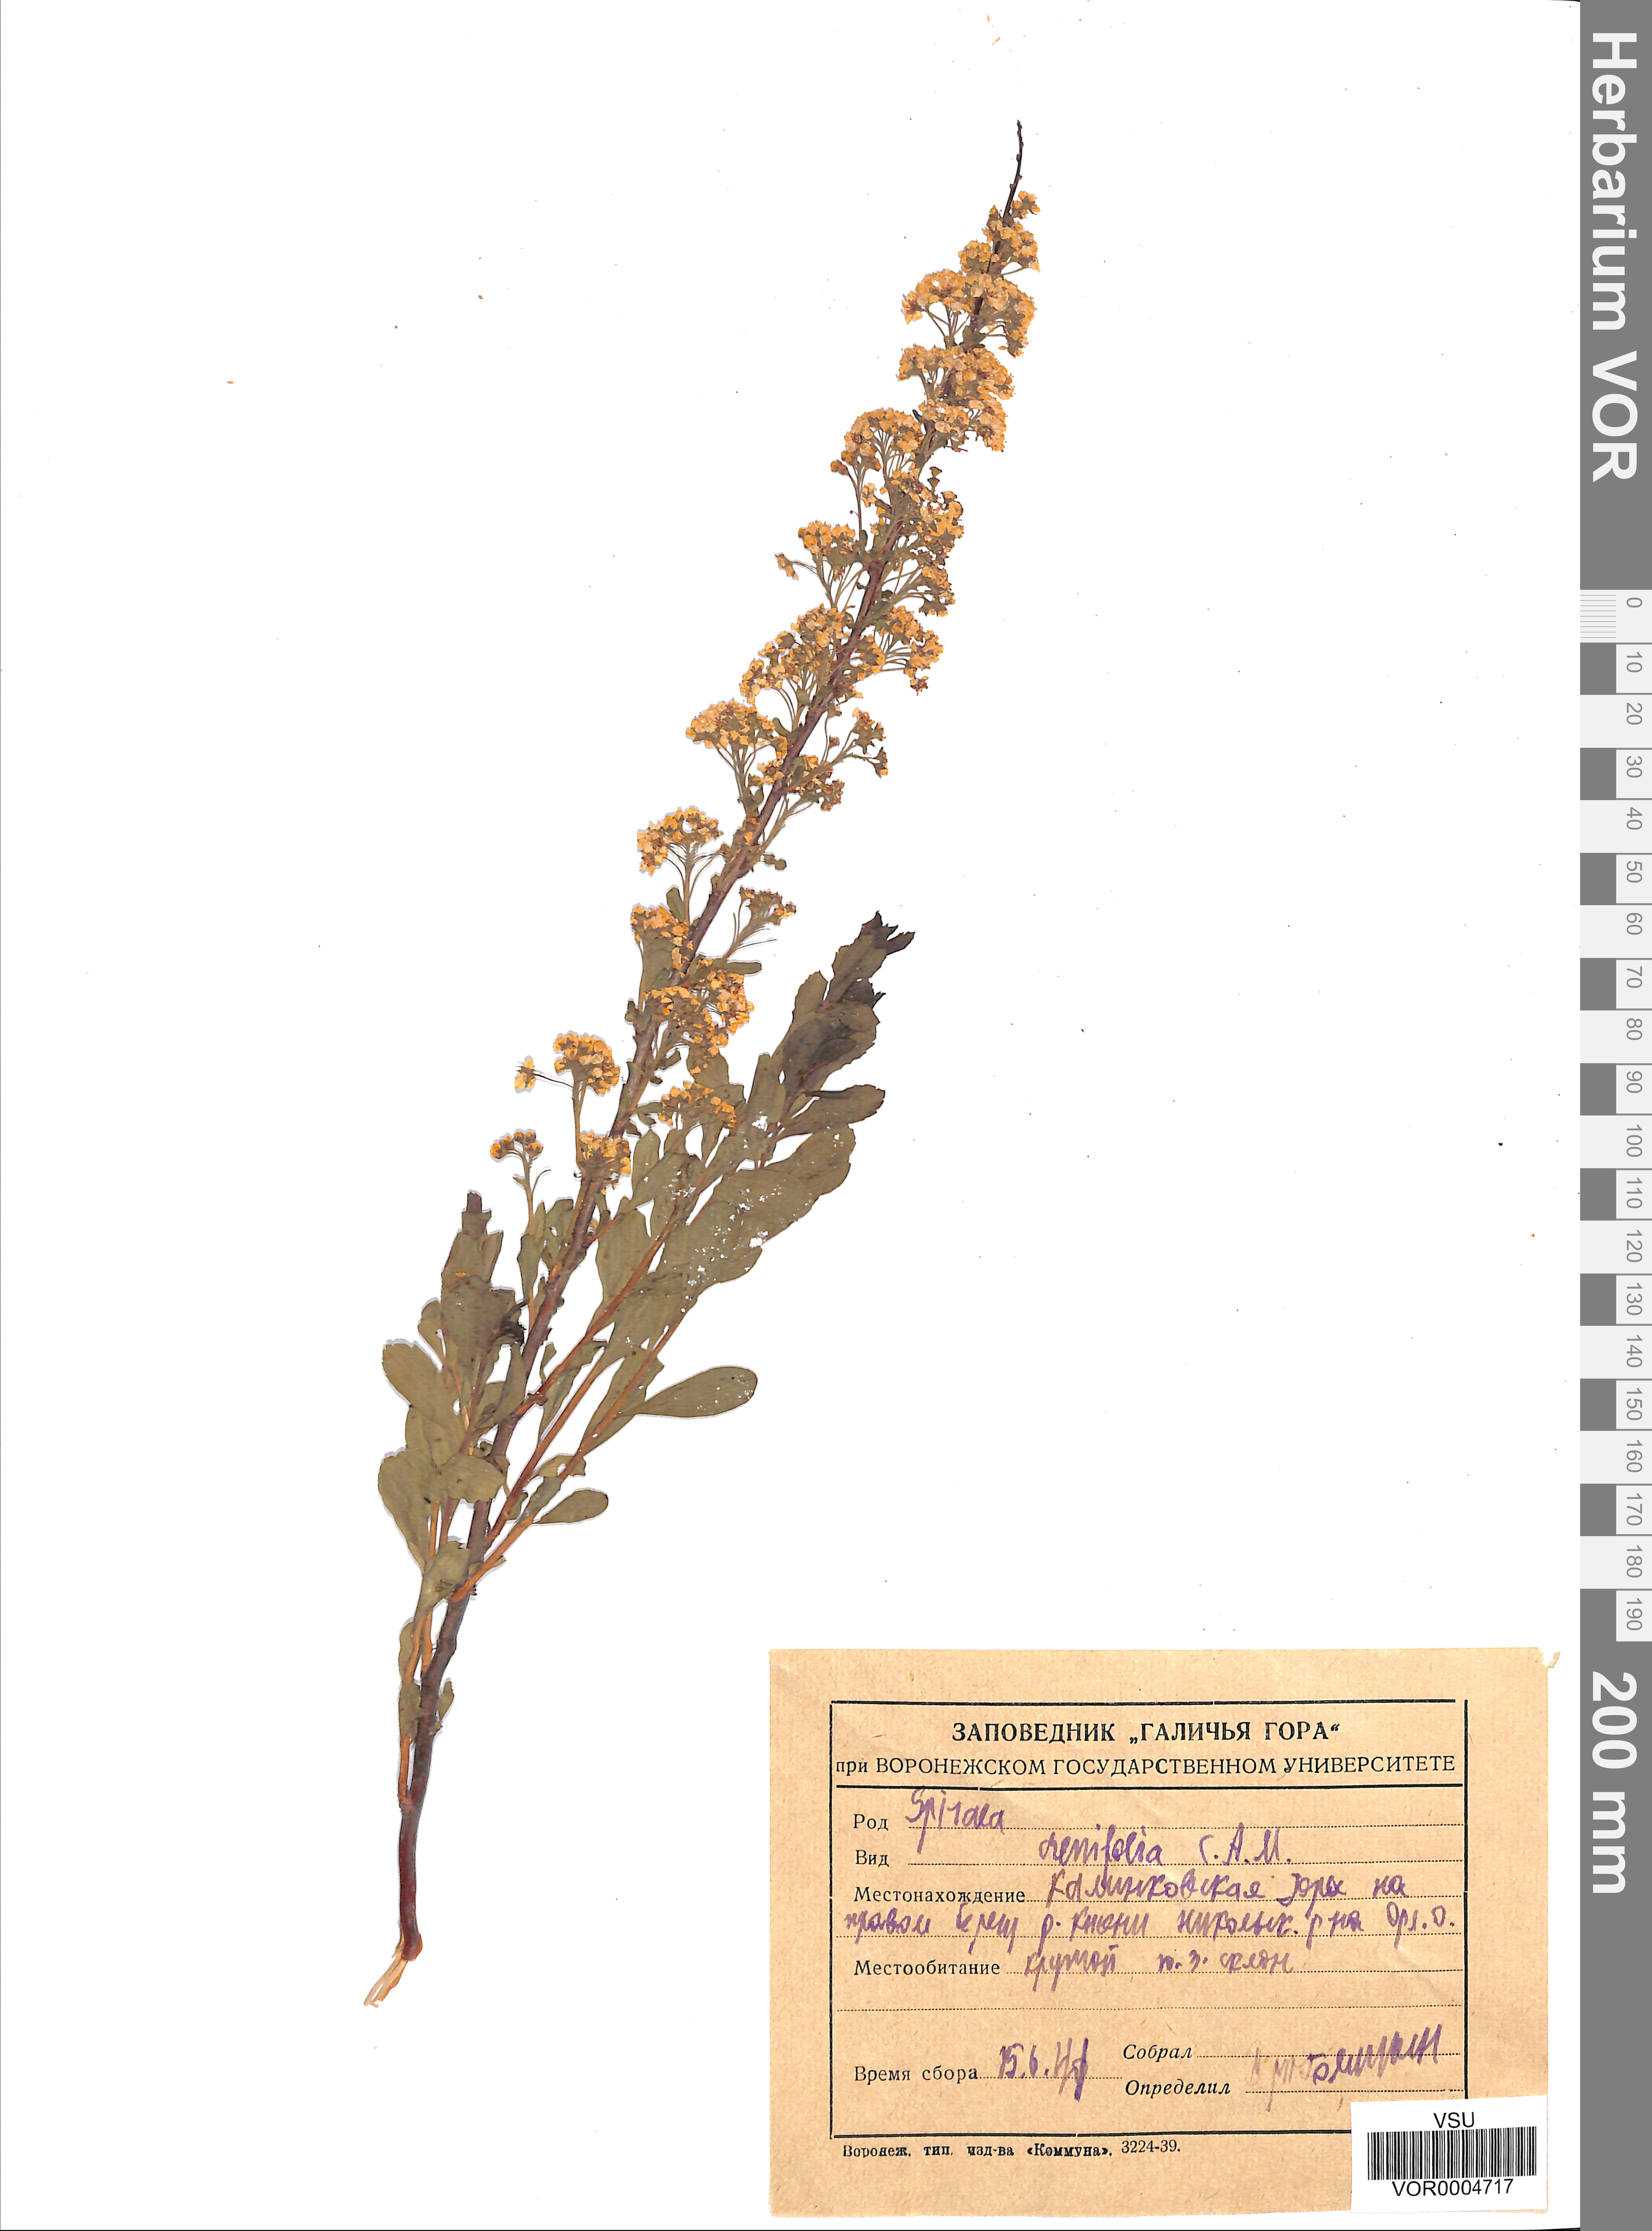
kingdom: Plantae
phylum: Tracheophyta
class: Magnoliopsida
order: Rosales
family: Rosaceae
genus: Spiraea
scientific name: Spiraea crenata
